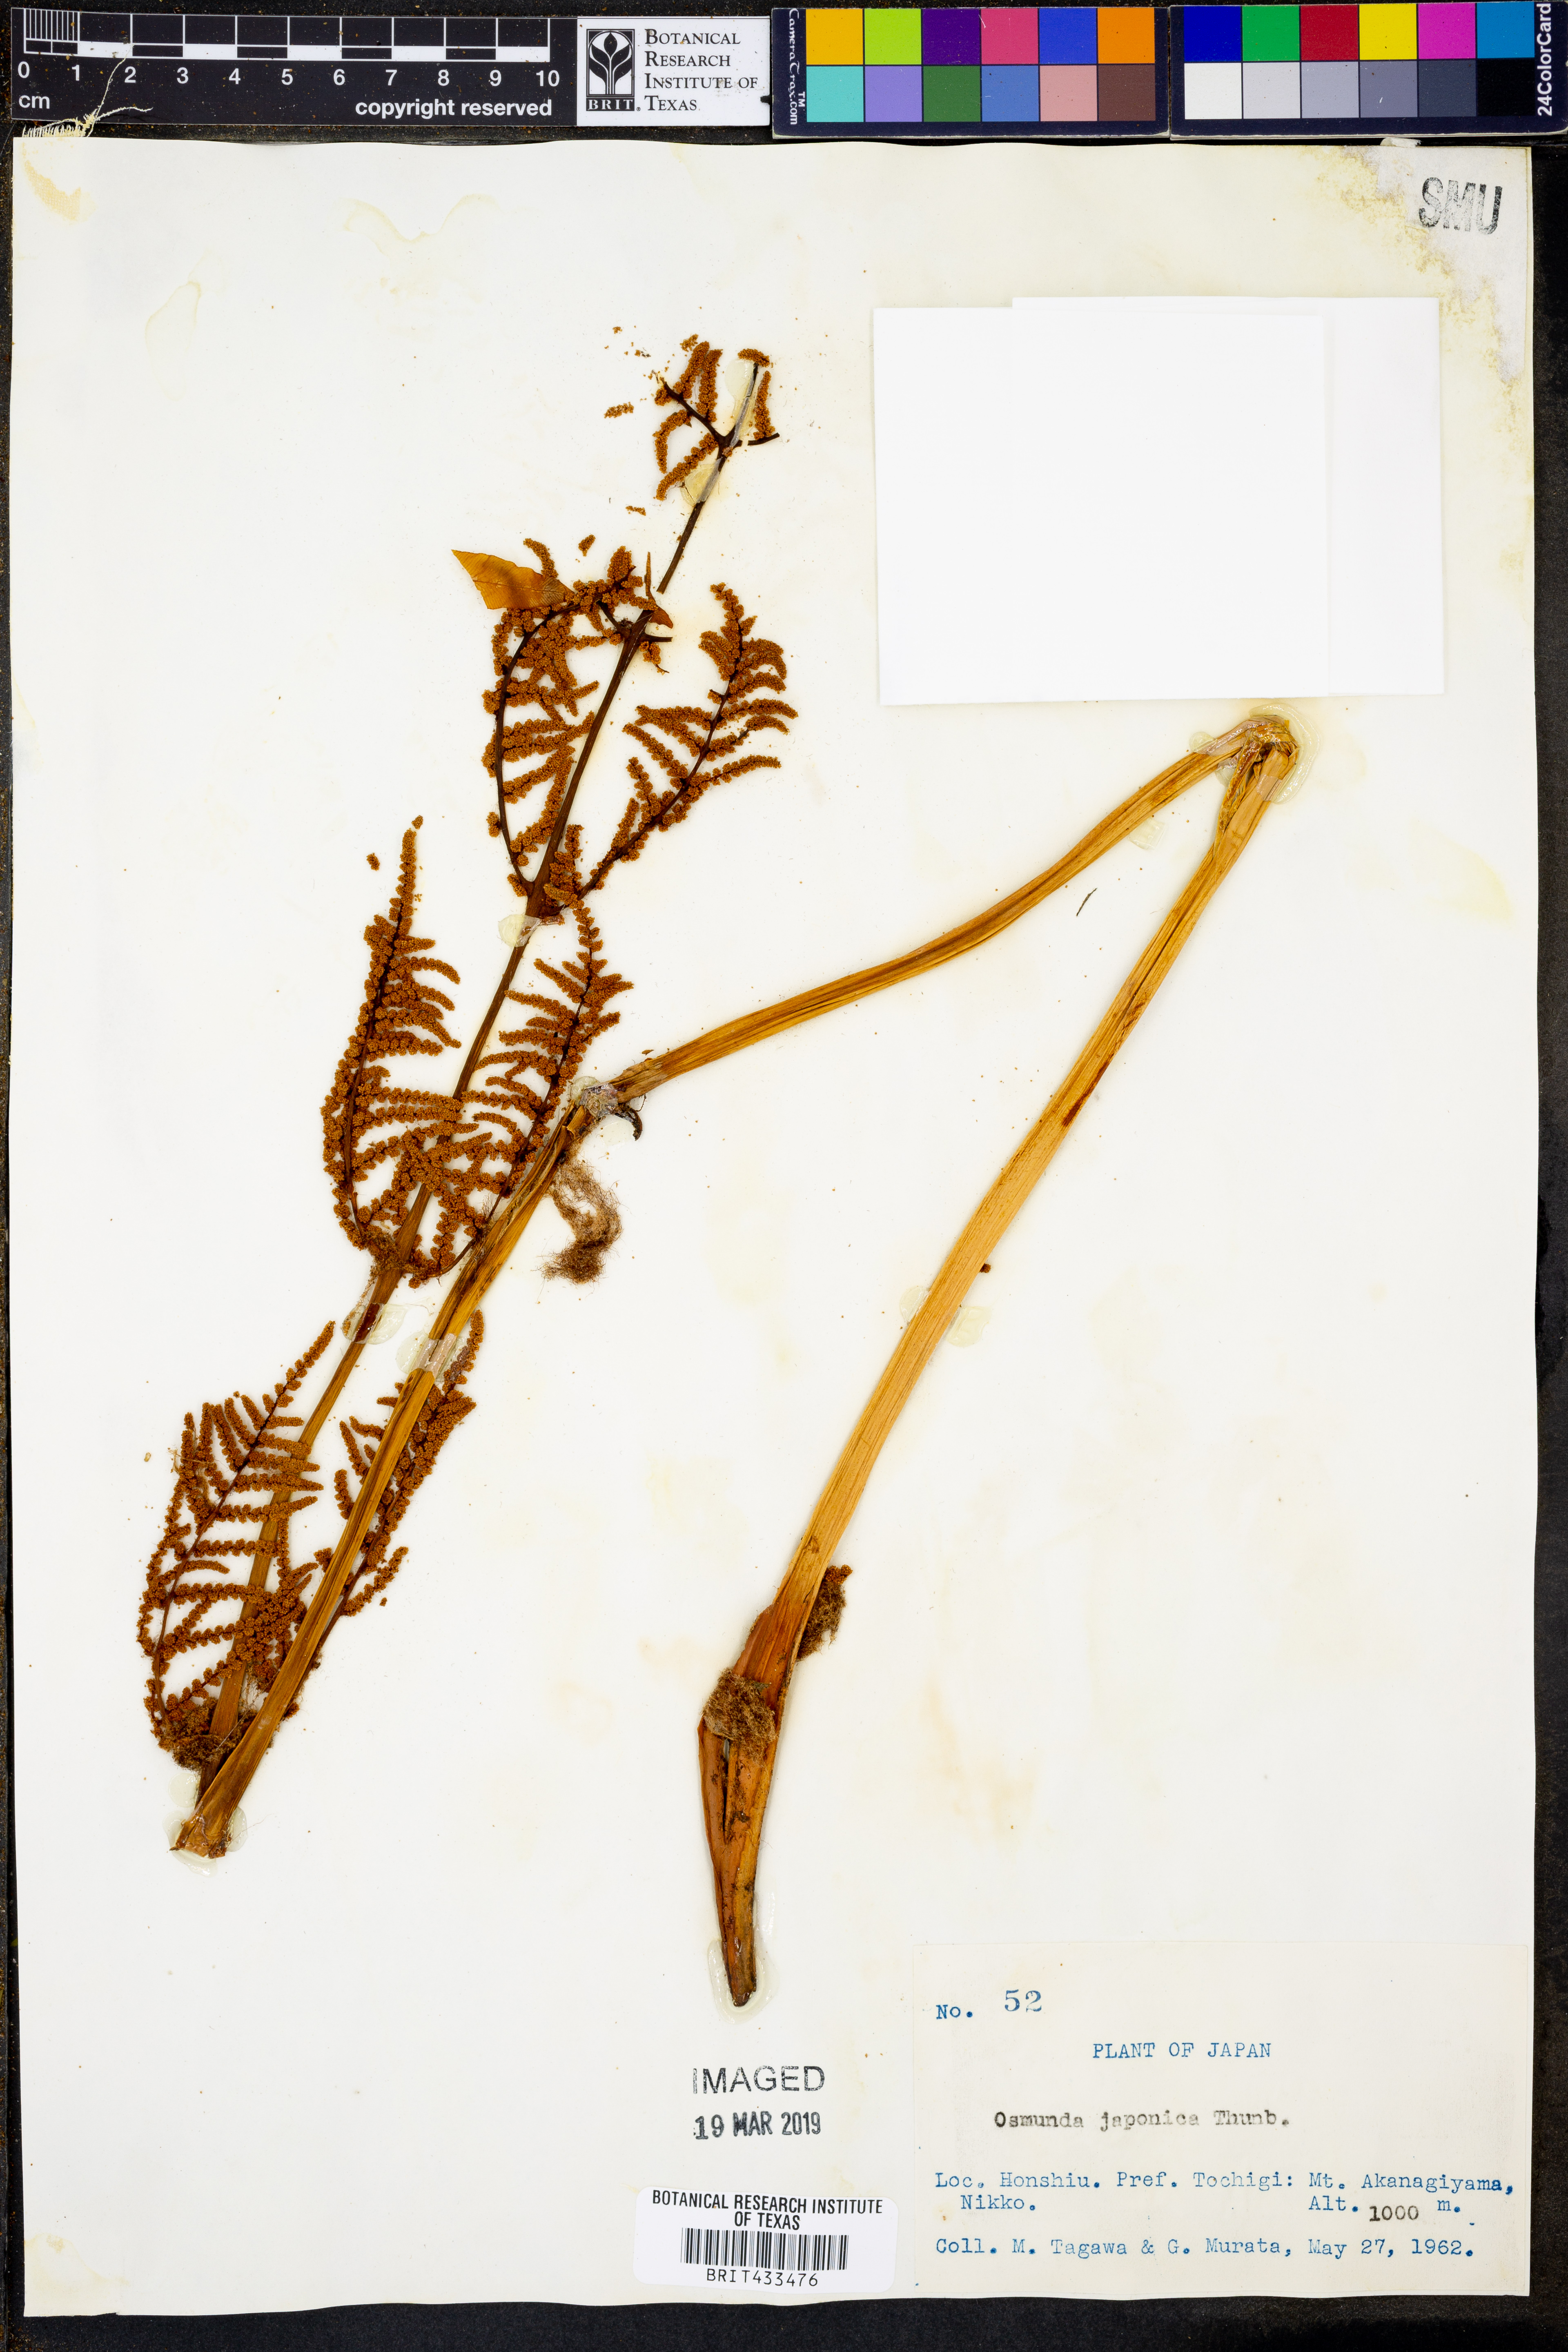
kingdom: Plantae
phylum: Tracheophyta
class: Polypodiopsida
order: Osmundales
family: Osmundaceae
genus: Osmunda
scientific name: Osmunda japonica
